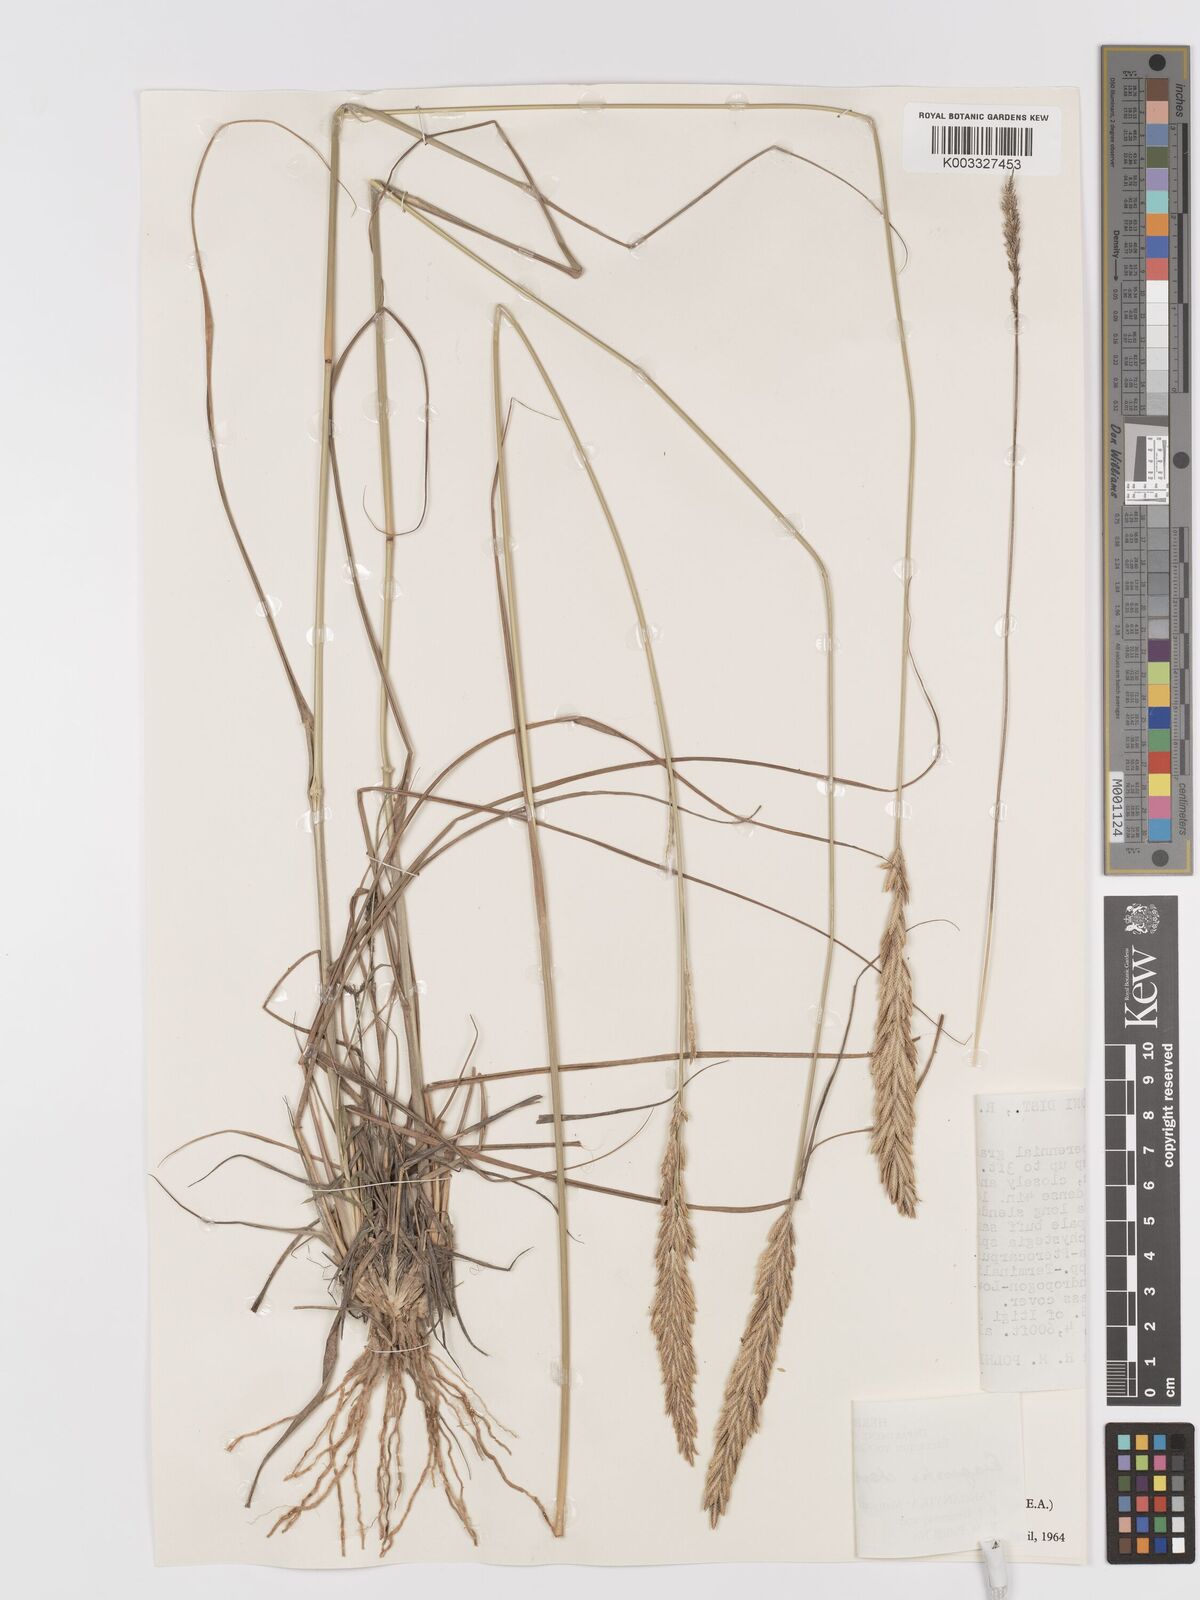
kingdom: Plantae
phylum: Tracheophyta
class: Liliopsida
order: Poales
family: Poaceae
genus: Eragrostis
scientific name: Eragrostis chapelieri
